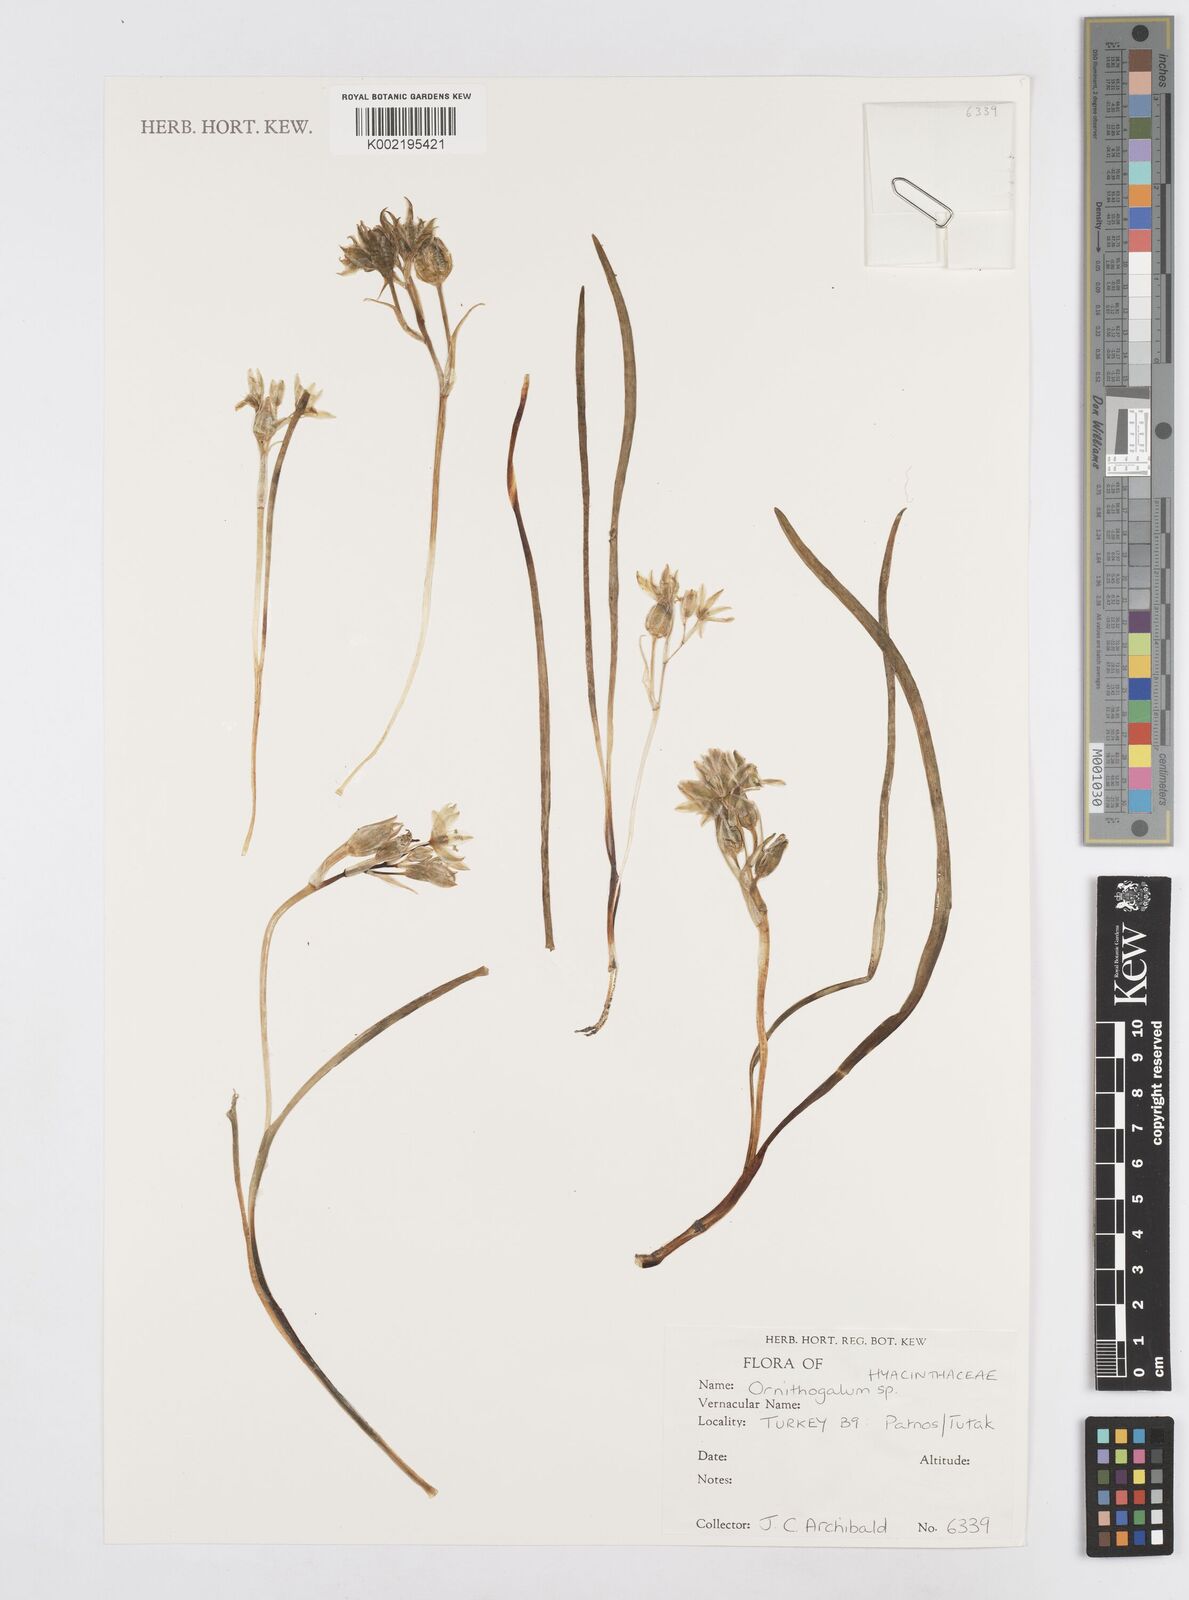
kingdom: Plantae
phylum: Tracheophyta
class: Liliopsida
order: Asparagales
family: Asparagaceae
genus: Ornithogalum
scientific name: Ornithogalum
